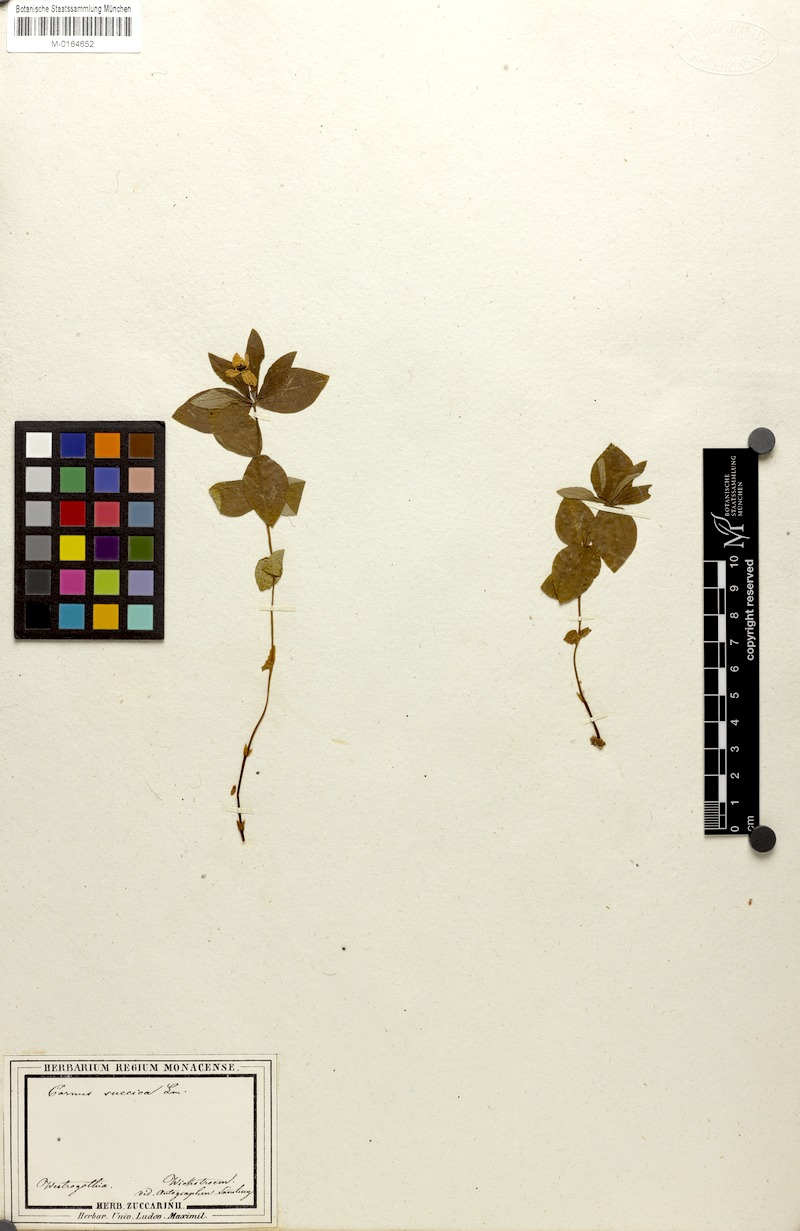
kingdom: Plantae
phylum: Tracheophyta
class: Magnoliopsida
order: Cornales
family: Cornaceae
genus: Cornus
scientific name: Cornus suecica
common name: Dwarf cornel
